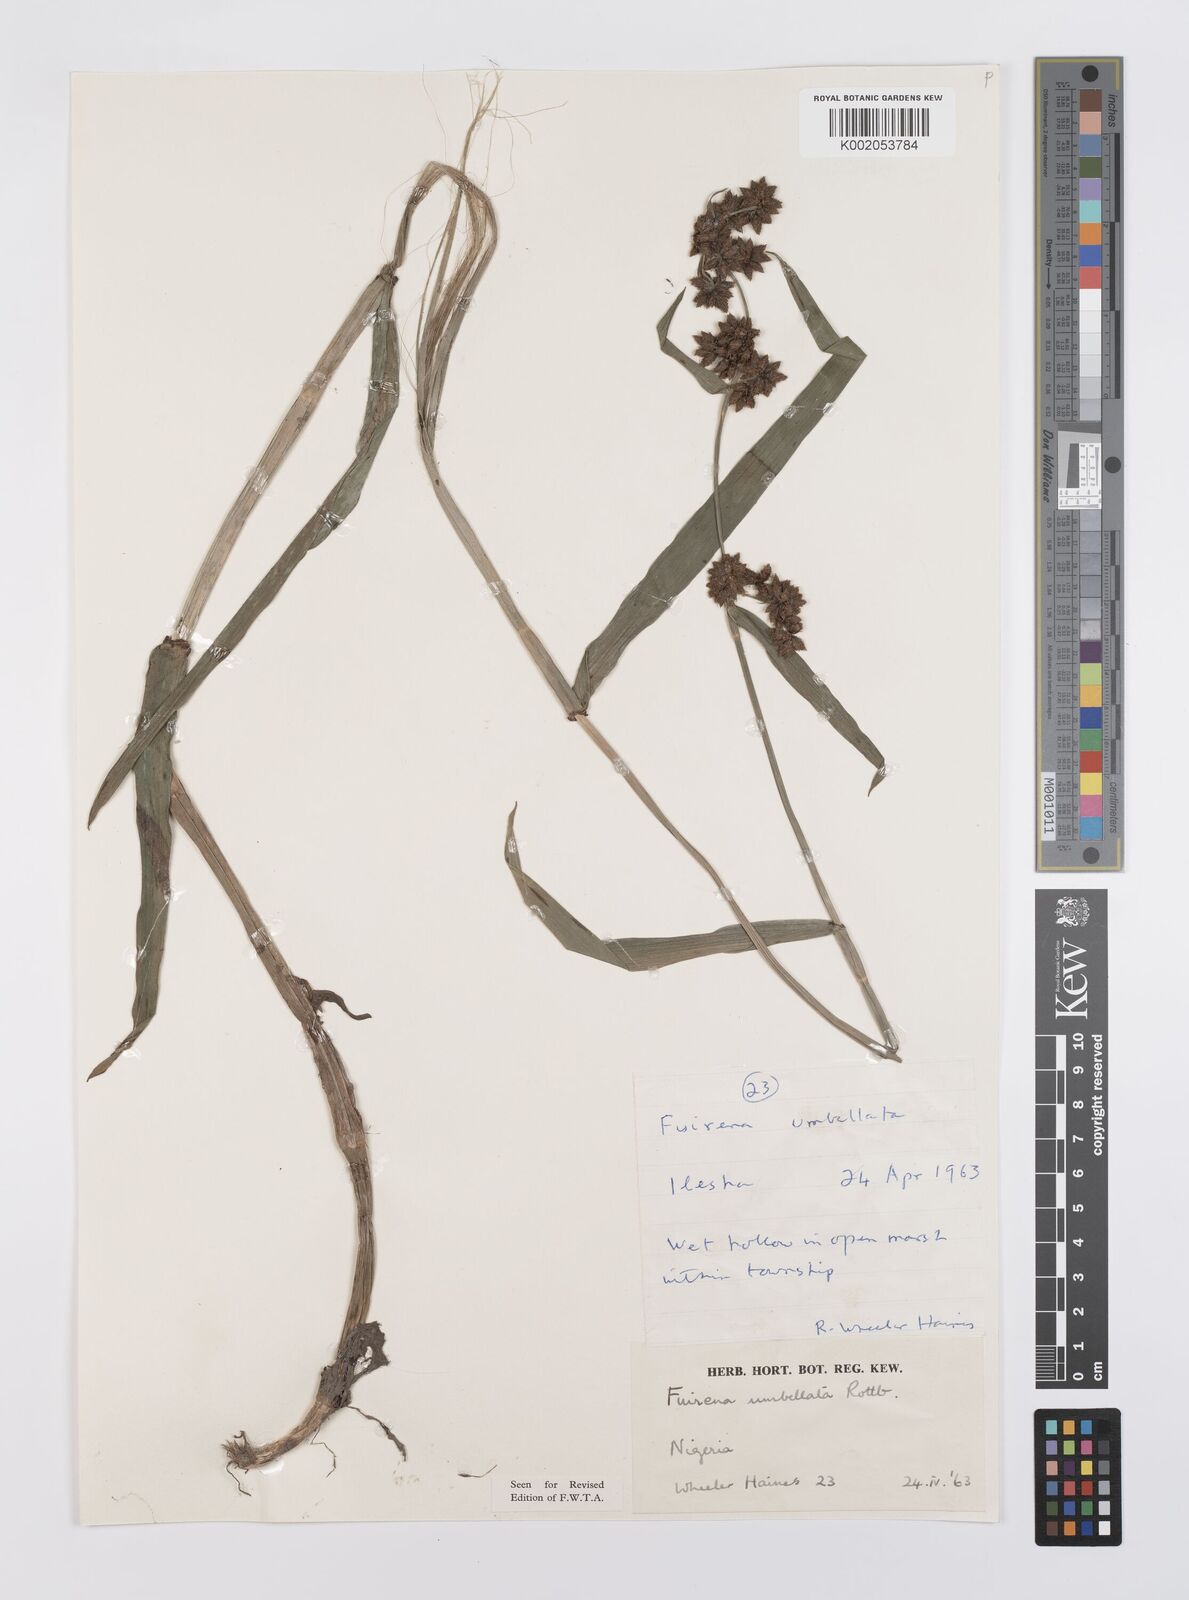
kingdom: Plantae
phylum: Tracheophyta
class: Liliopsida
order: Poales
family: Cyperaceae
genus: Fuirena
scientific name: Fuirena umbellata
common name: Yefen
